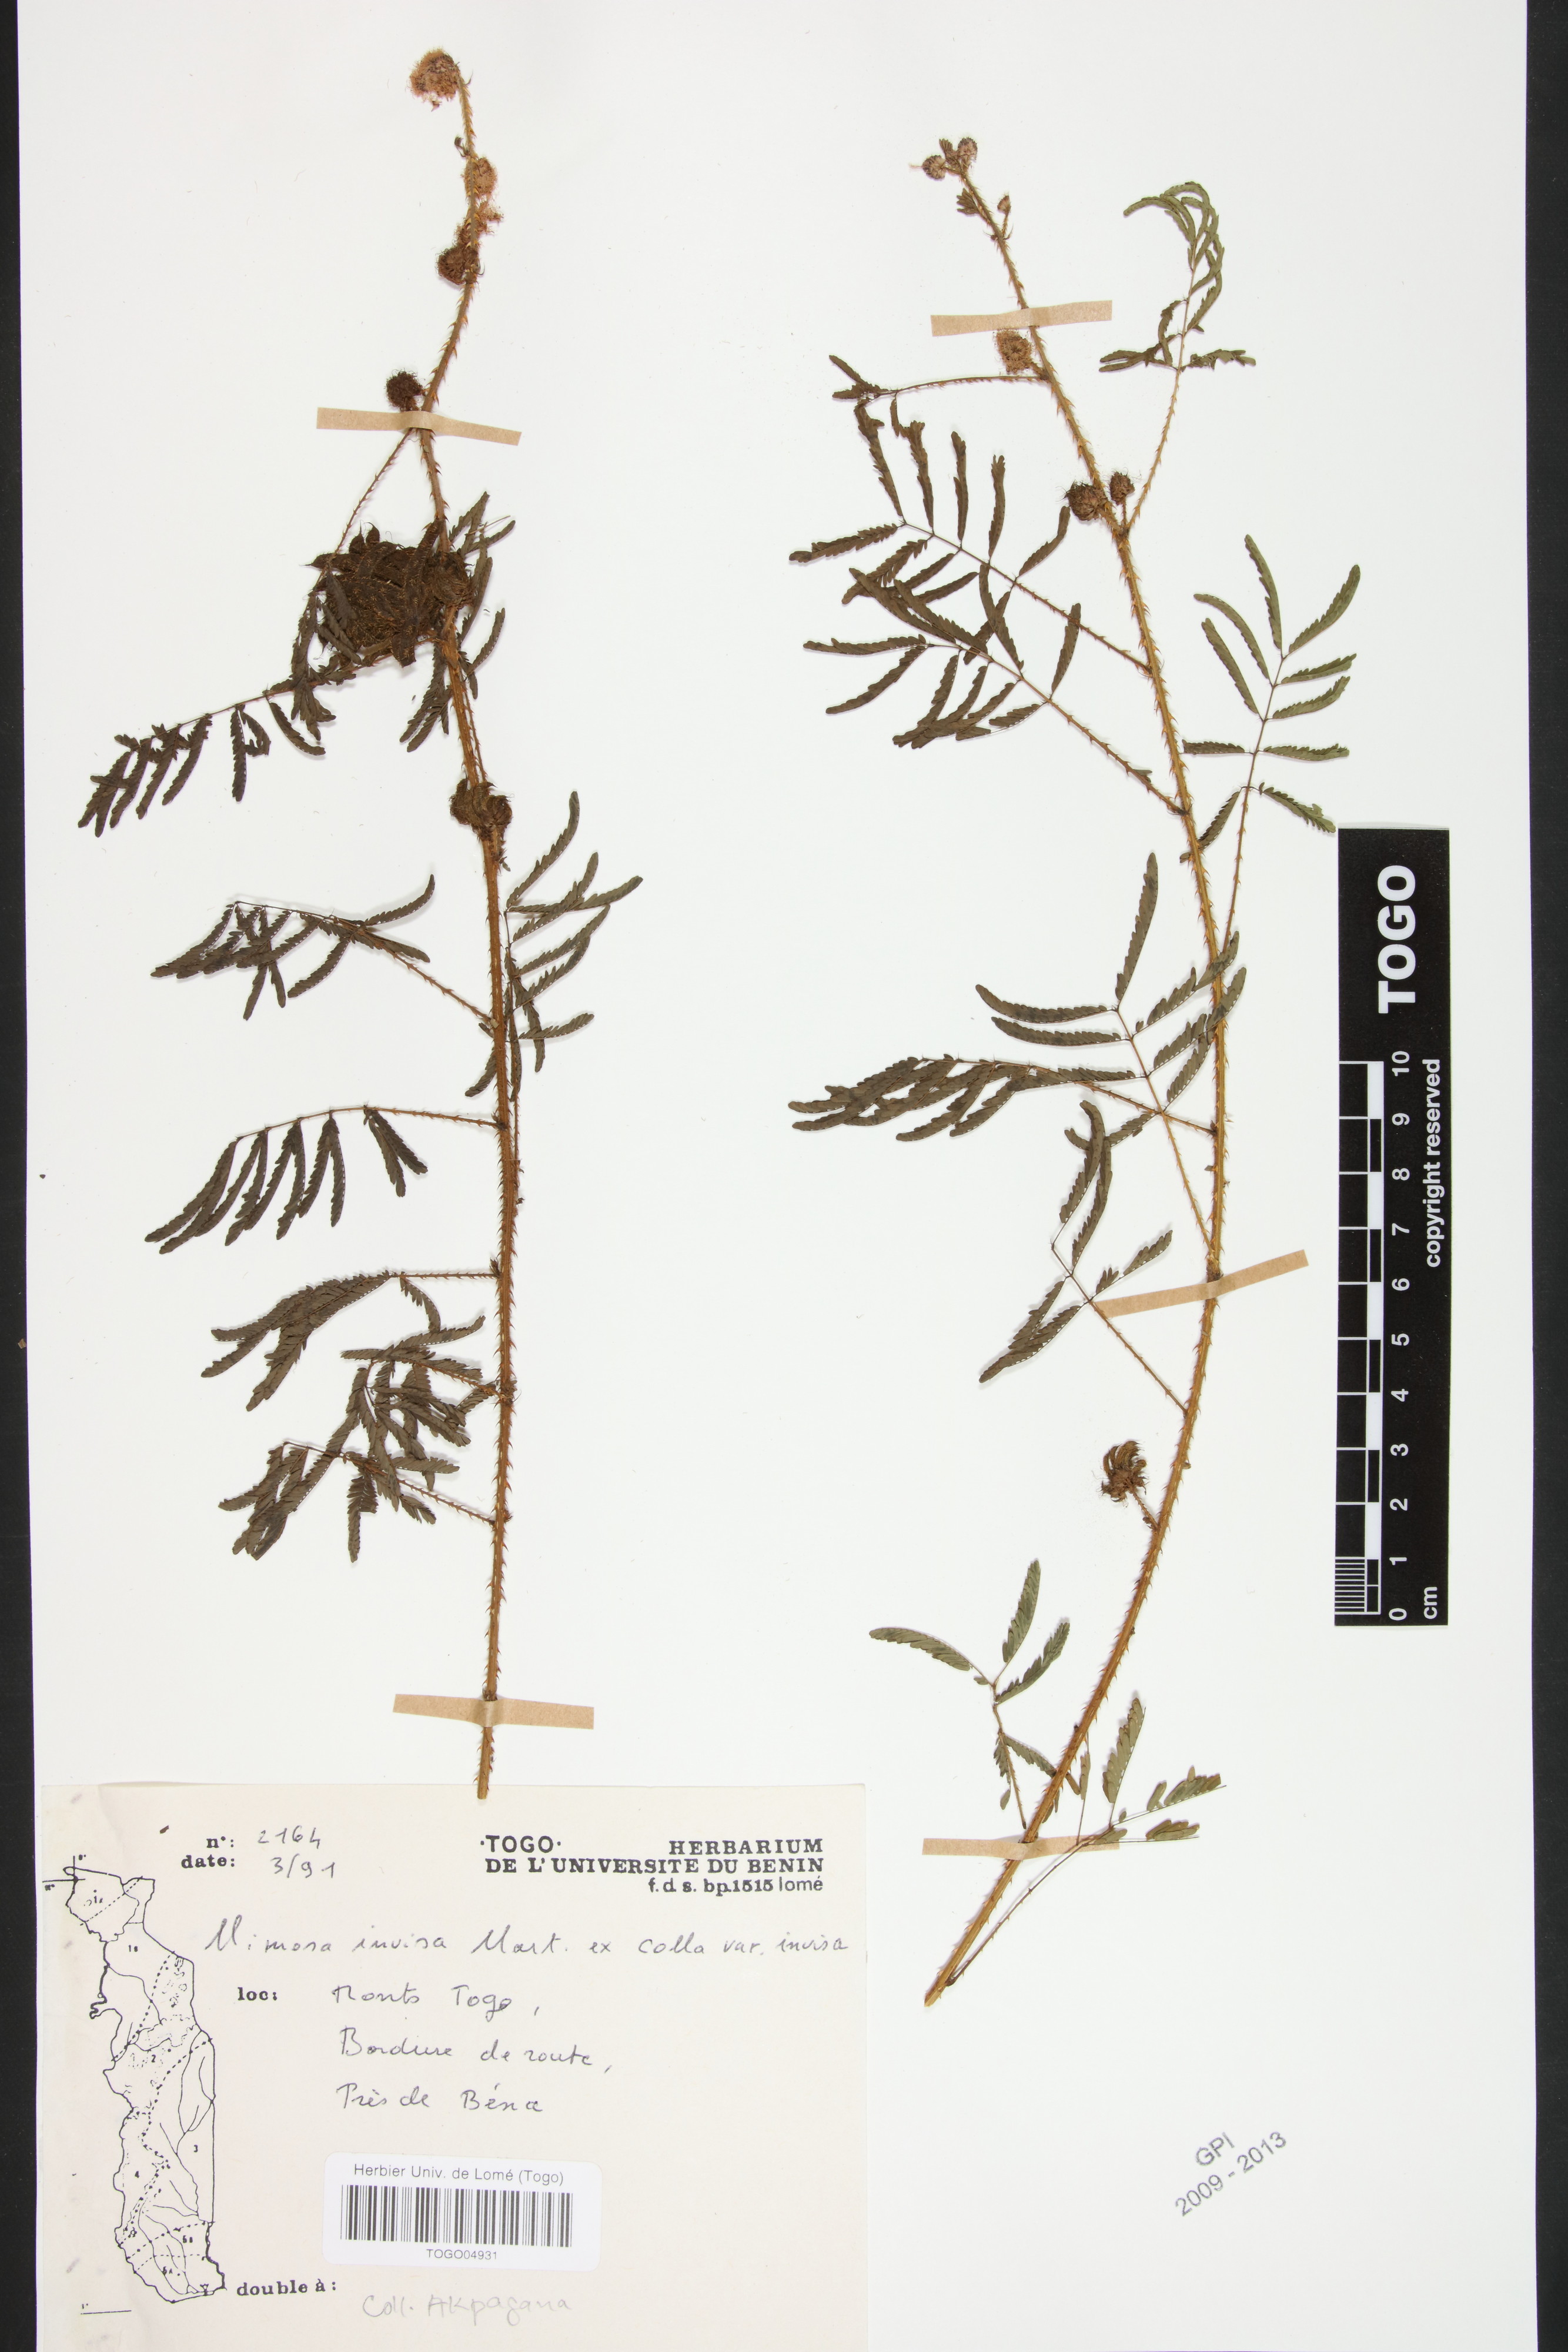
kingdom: Plantae
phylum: Tracheophyta
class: Magnoliopsida
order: Fabales
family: Fabaceae
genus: Mimosa
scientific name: Mimosa invisa
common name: Creeping sensitive-plant
